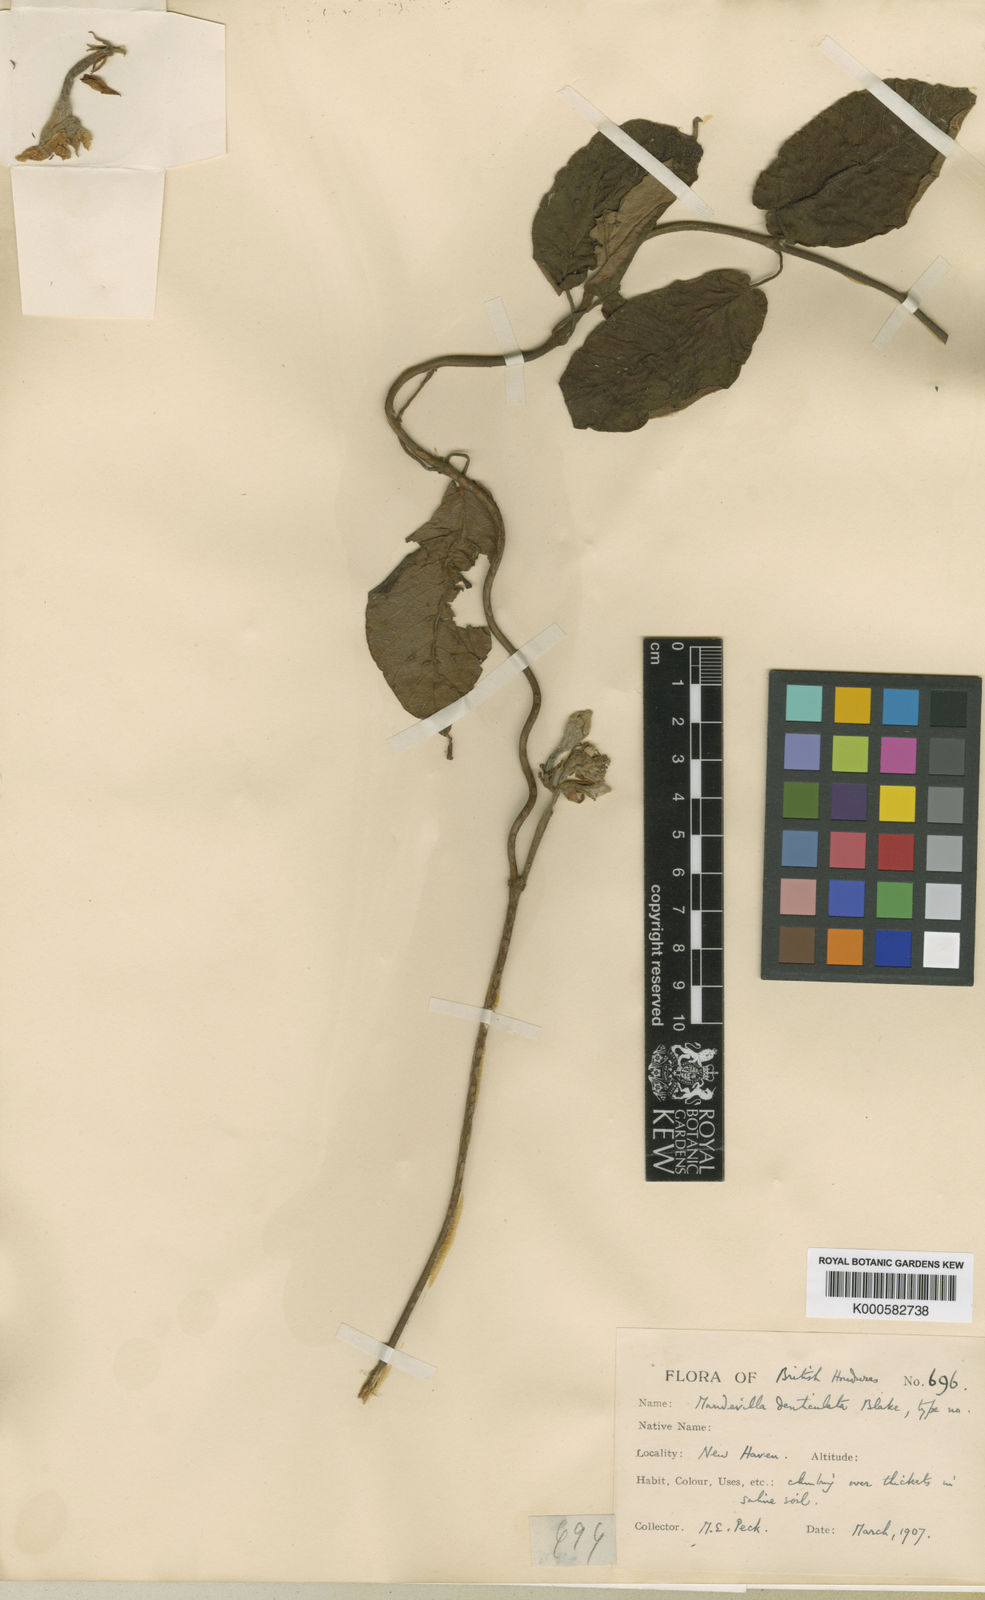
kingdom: Plantae
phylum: Tracheophyta
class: Magnoliopsida
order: Gentianales
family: Apocynaceae
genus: Mandevilla
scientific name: Mandevilla hirsuta
